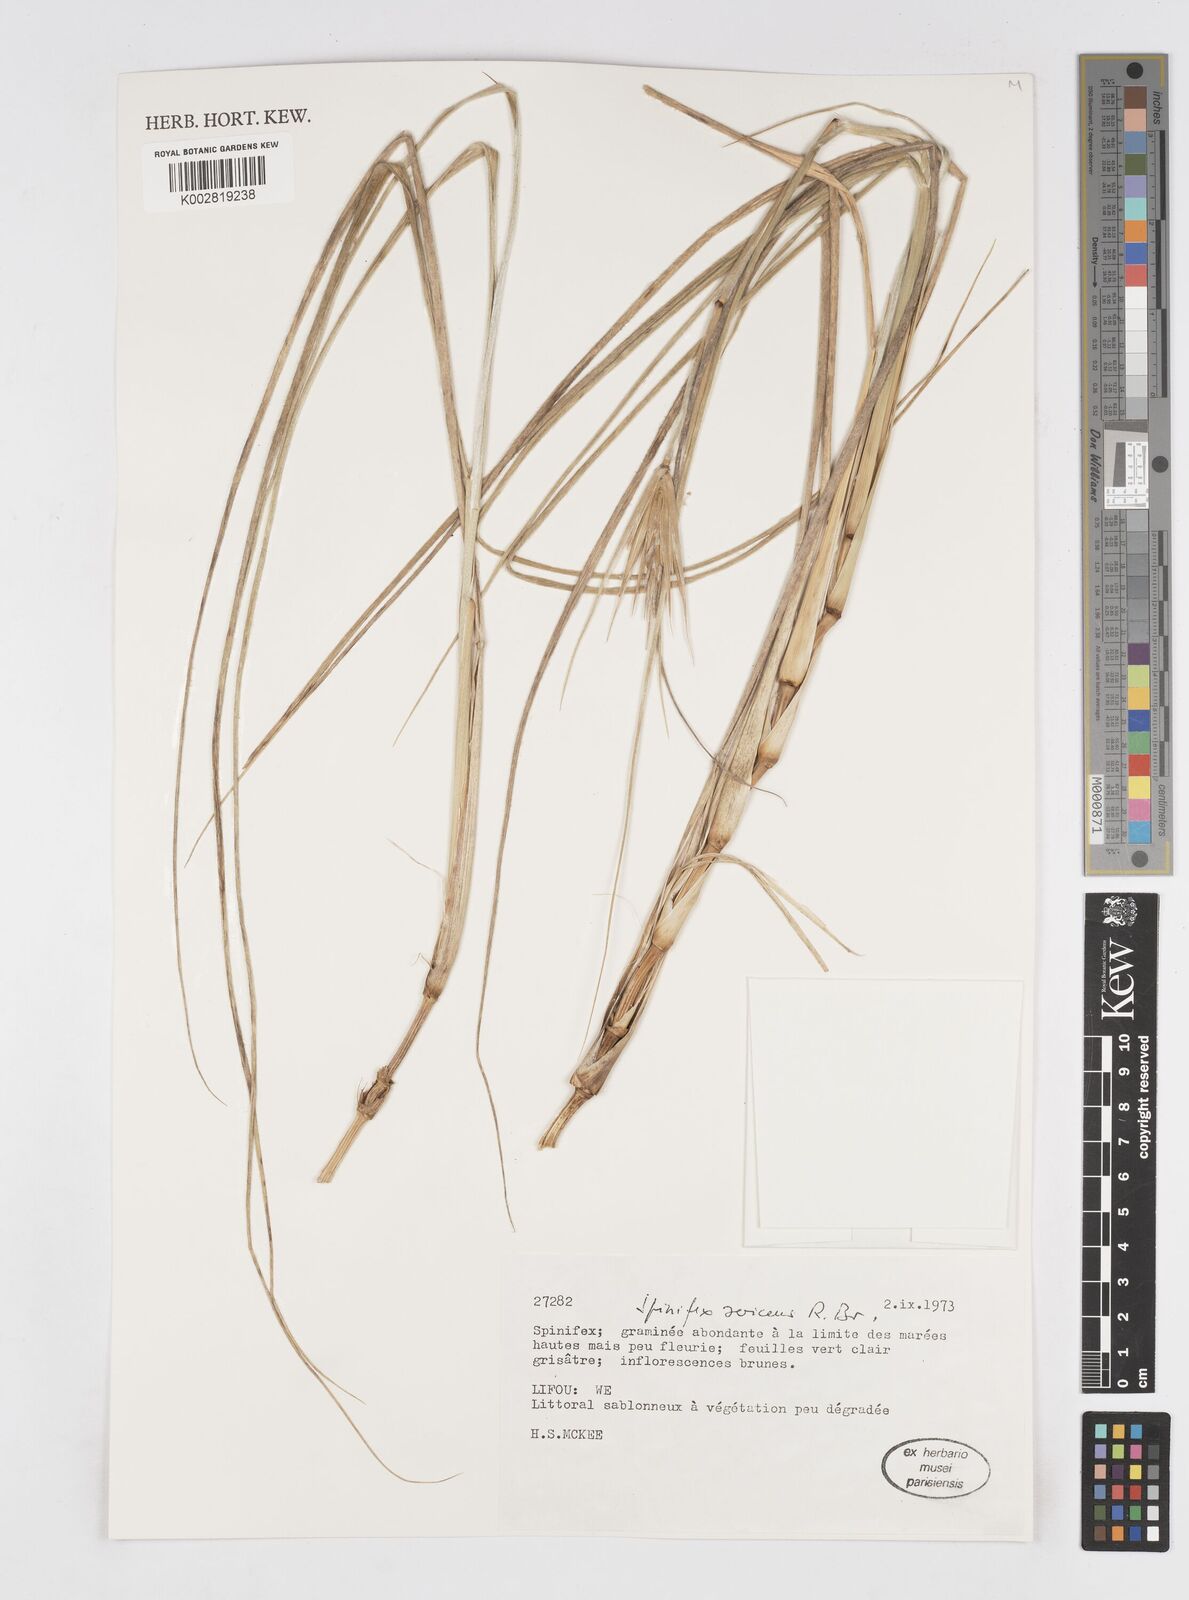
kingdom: Plantae
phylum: Tracheophyta
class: Liliopsida
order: Poales
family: Poaceae
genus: Spinifex
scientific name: Spinifex sericeus
